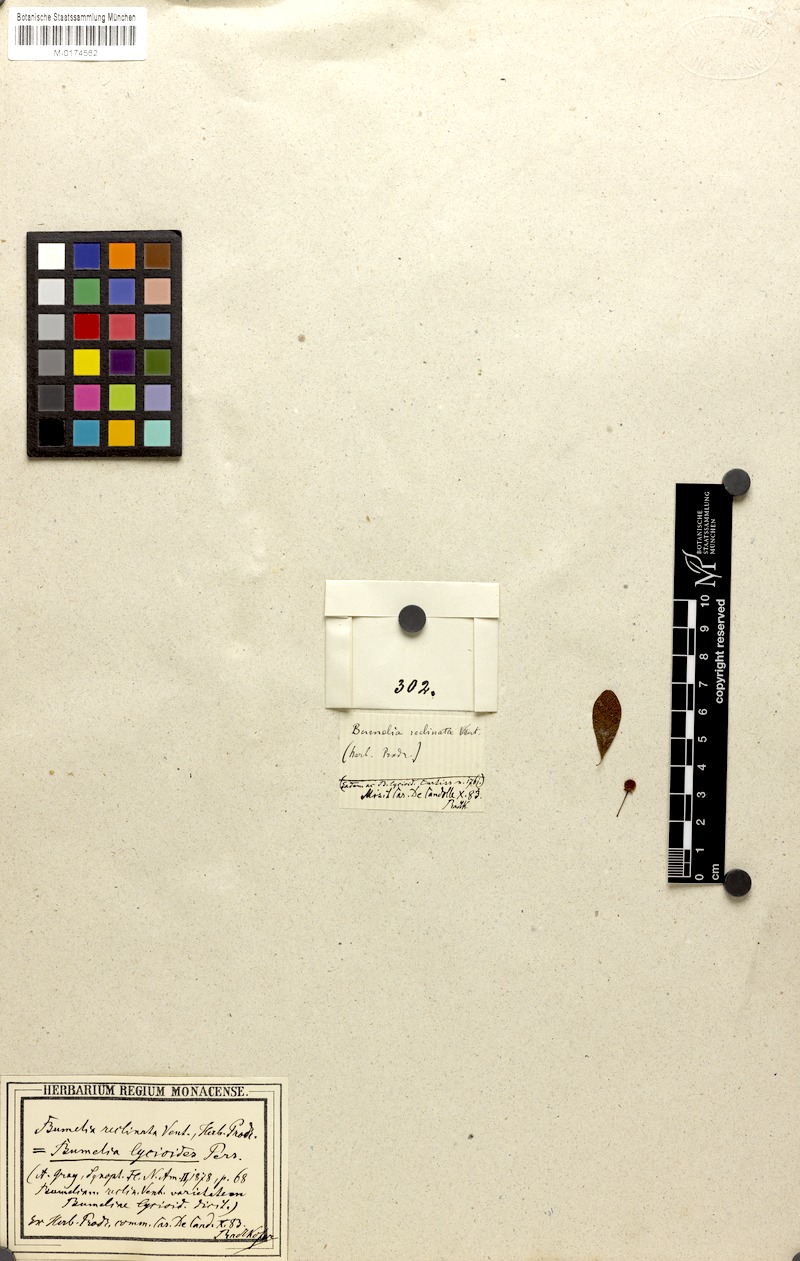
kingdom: Plantae
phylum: Tracheophyta
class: Magnoliopsida
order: Ericales
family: Sapotaceae
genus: Sideroxylon
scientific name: Sideroxylon reclinatum
